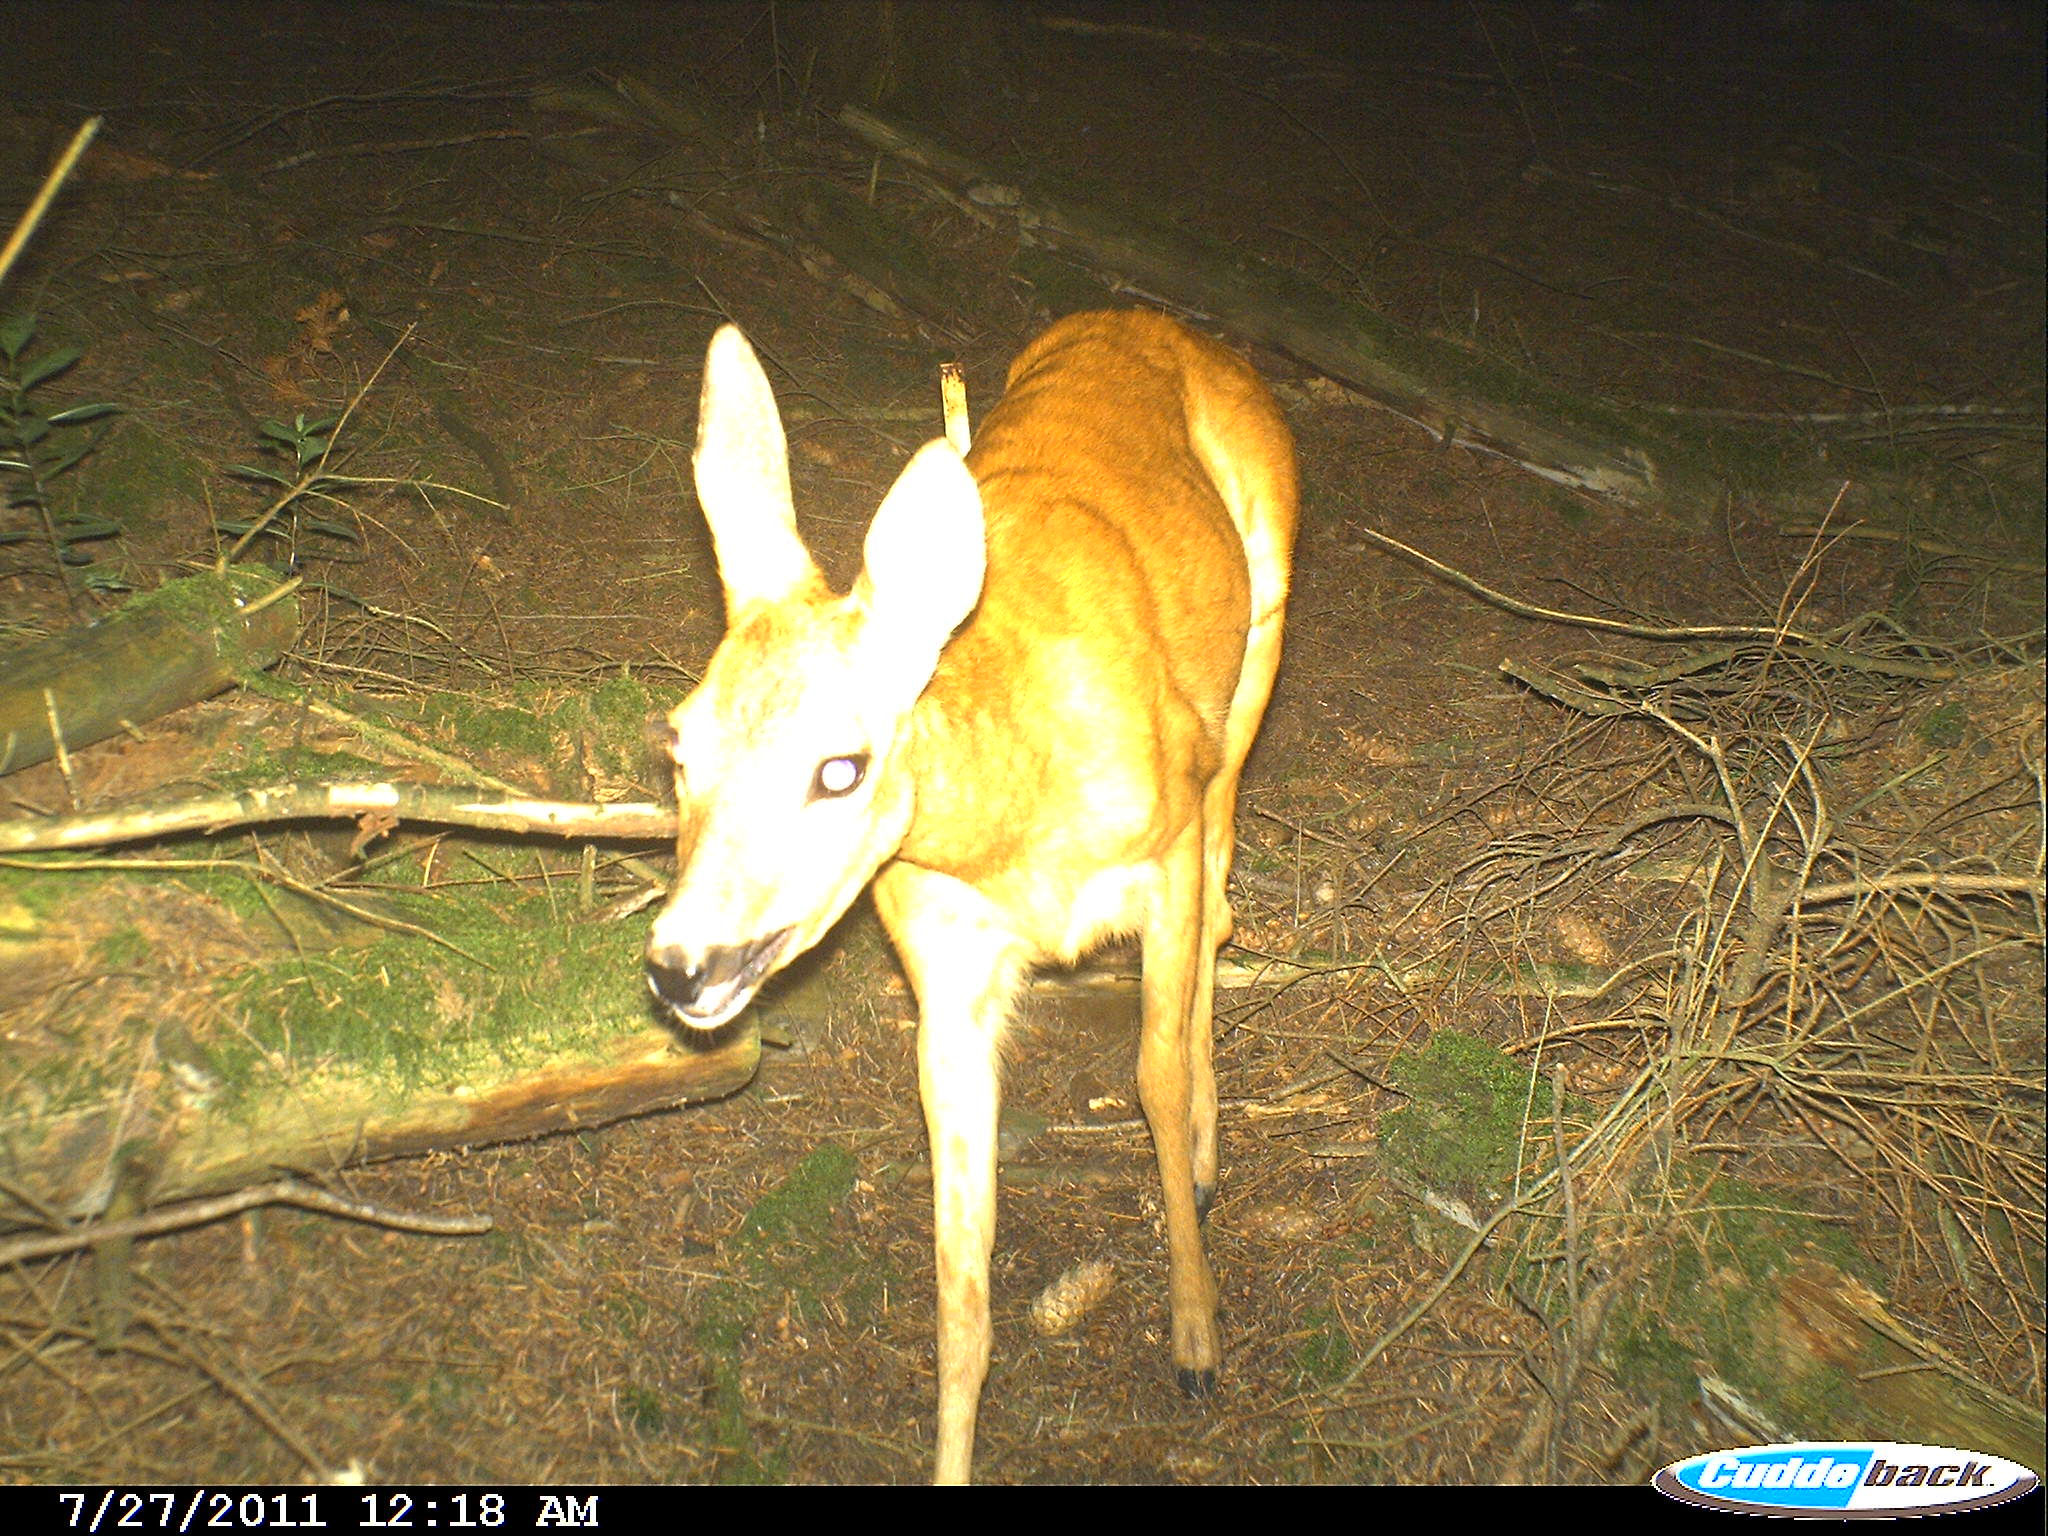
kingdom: Animalia
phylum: Chordata
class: Mammalia
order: Artiodactyla
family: Cervidae
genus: Capreolus
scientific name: Capreolus capreolus
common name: Western roe deer
